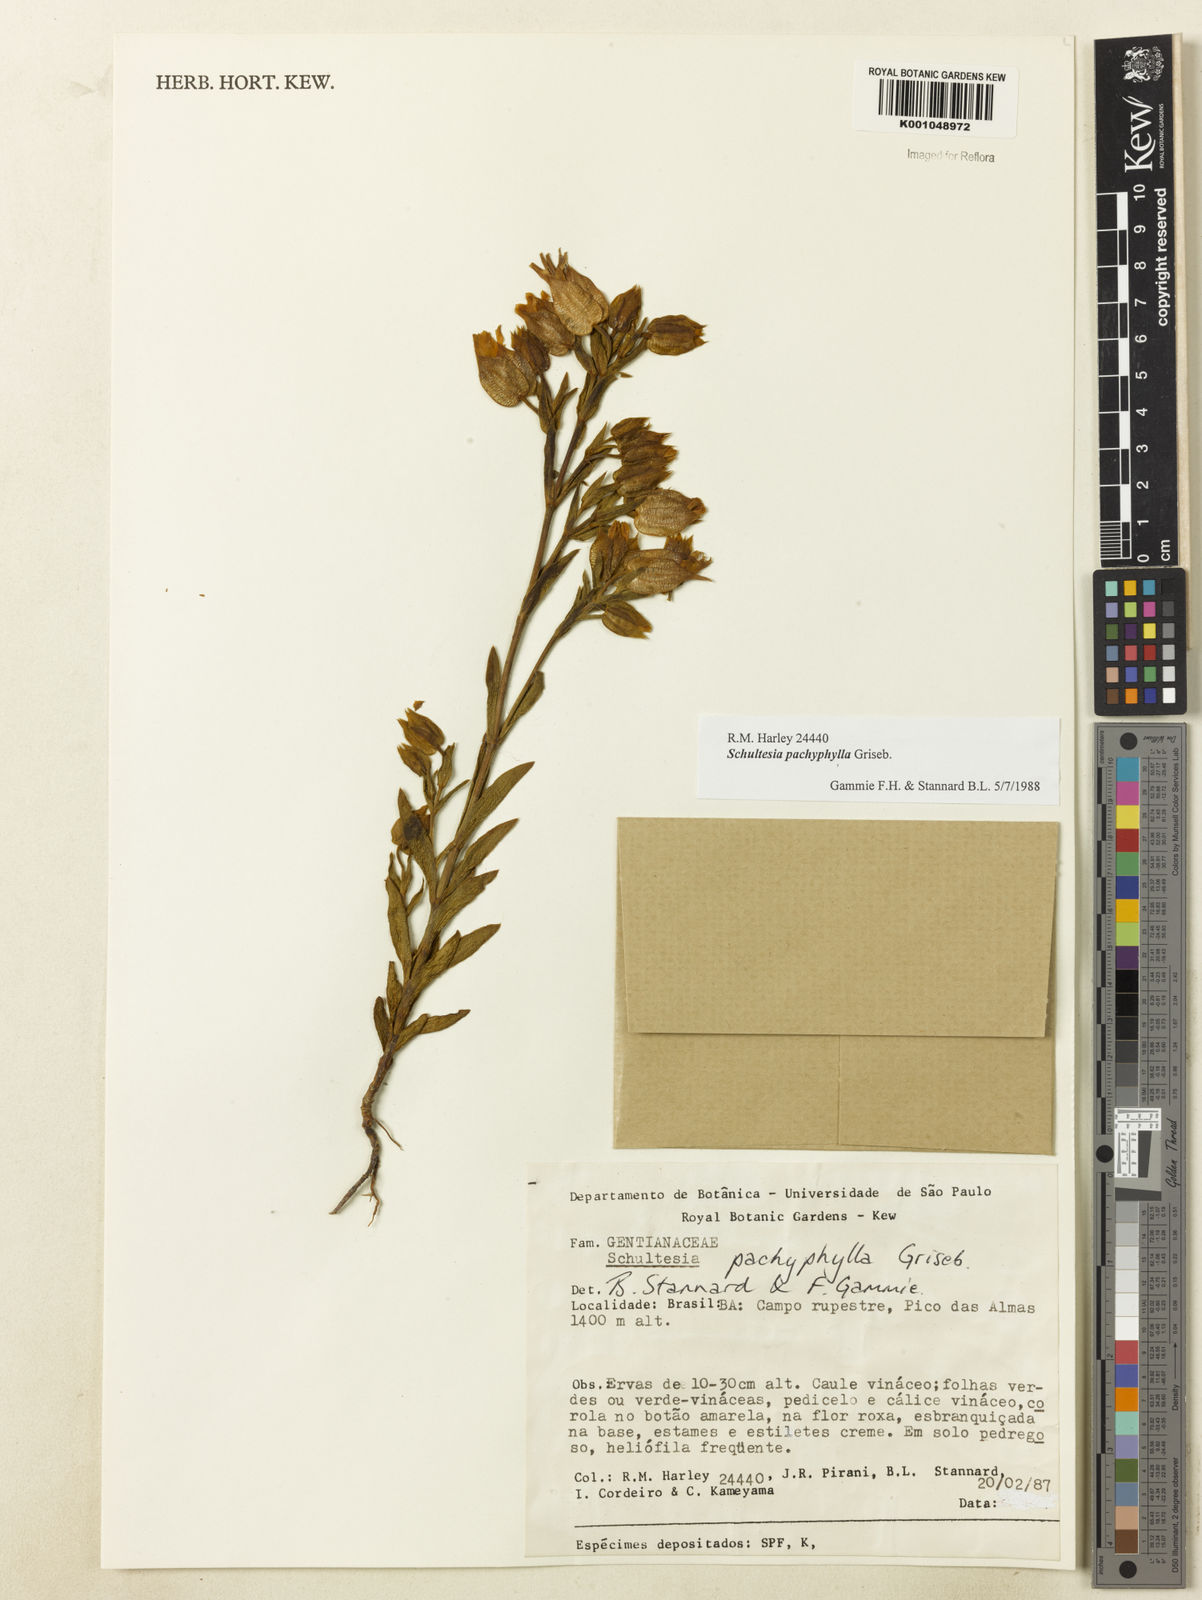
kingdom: Plantae
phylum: Tracheophyta
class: Magnoliopsida
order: Gentianales
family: Gentianaceae
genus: Schultesia
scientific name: Schultesia pachyphylla
